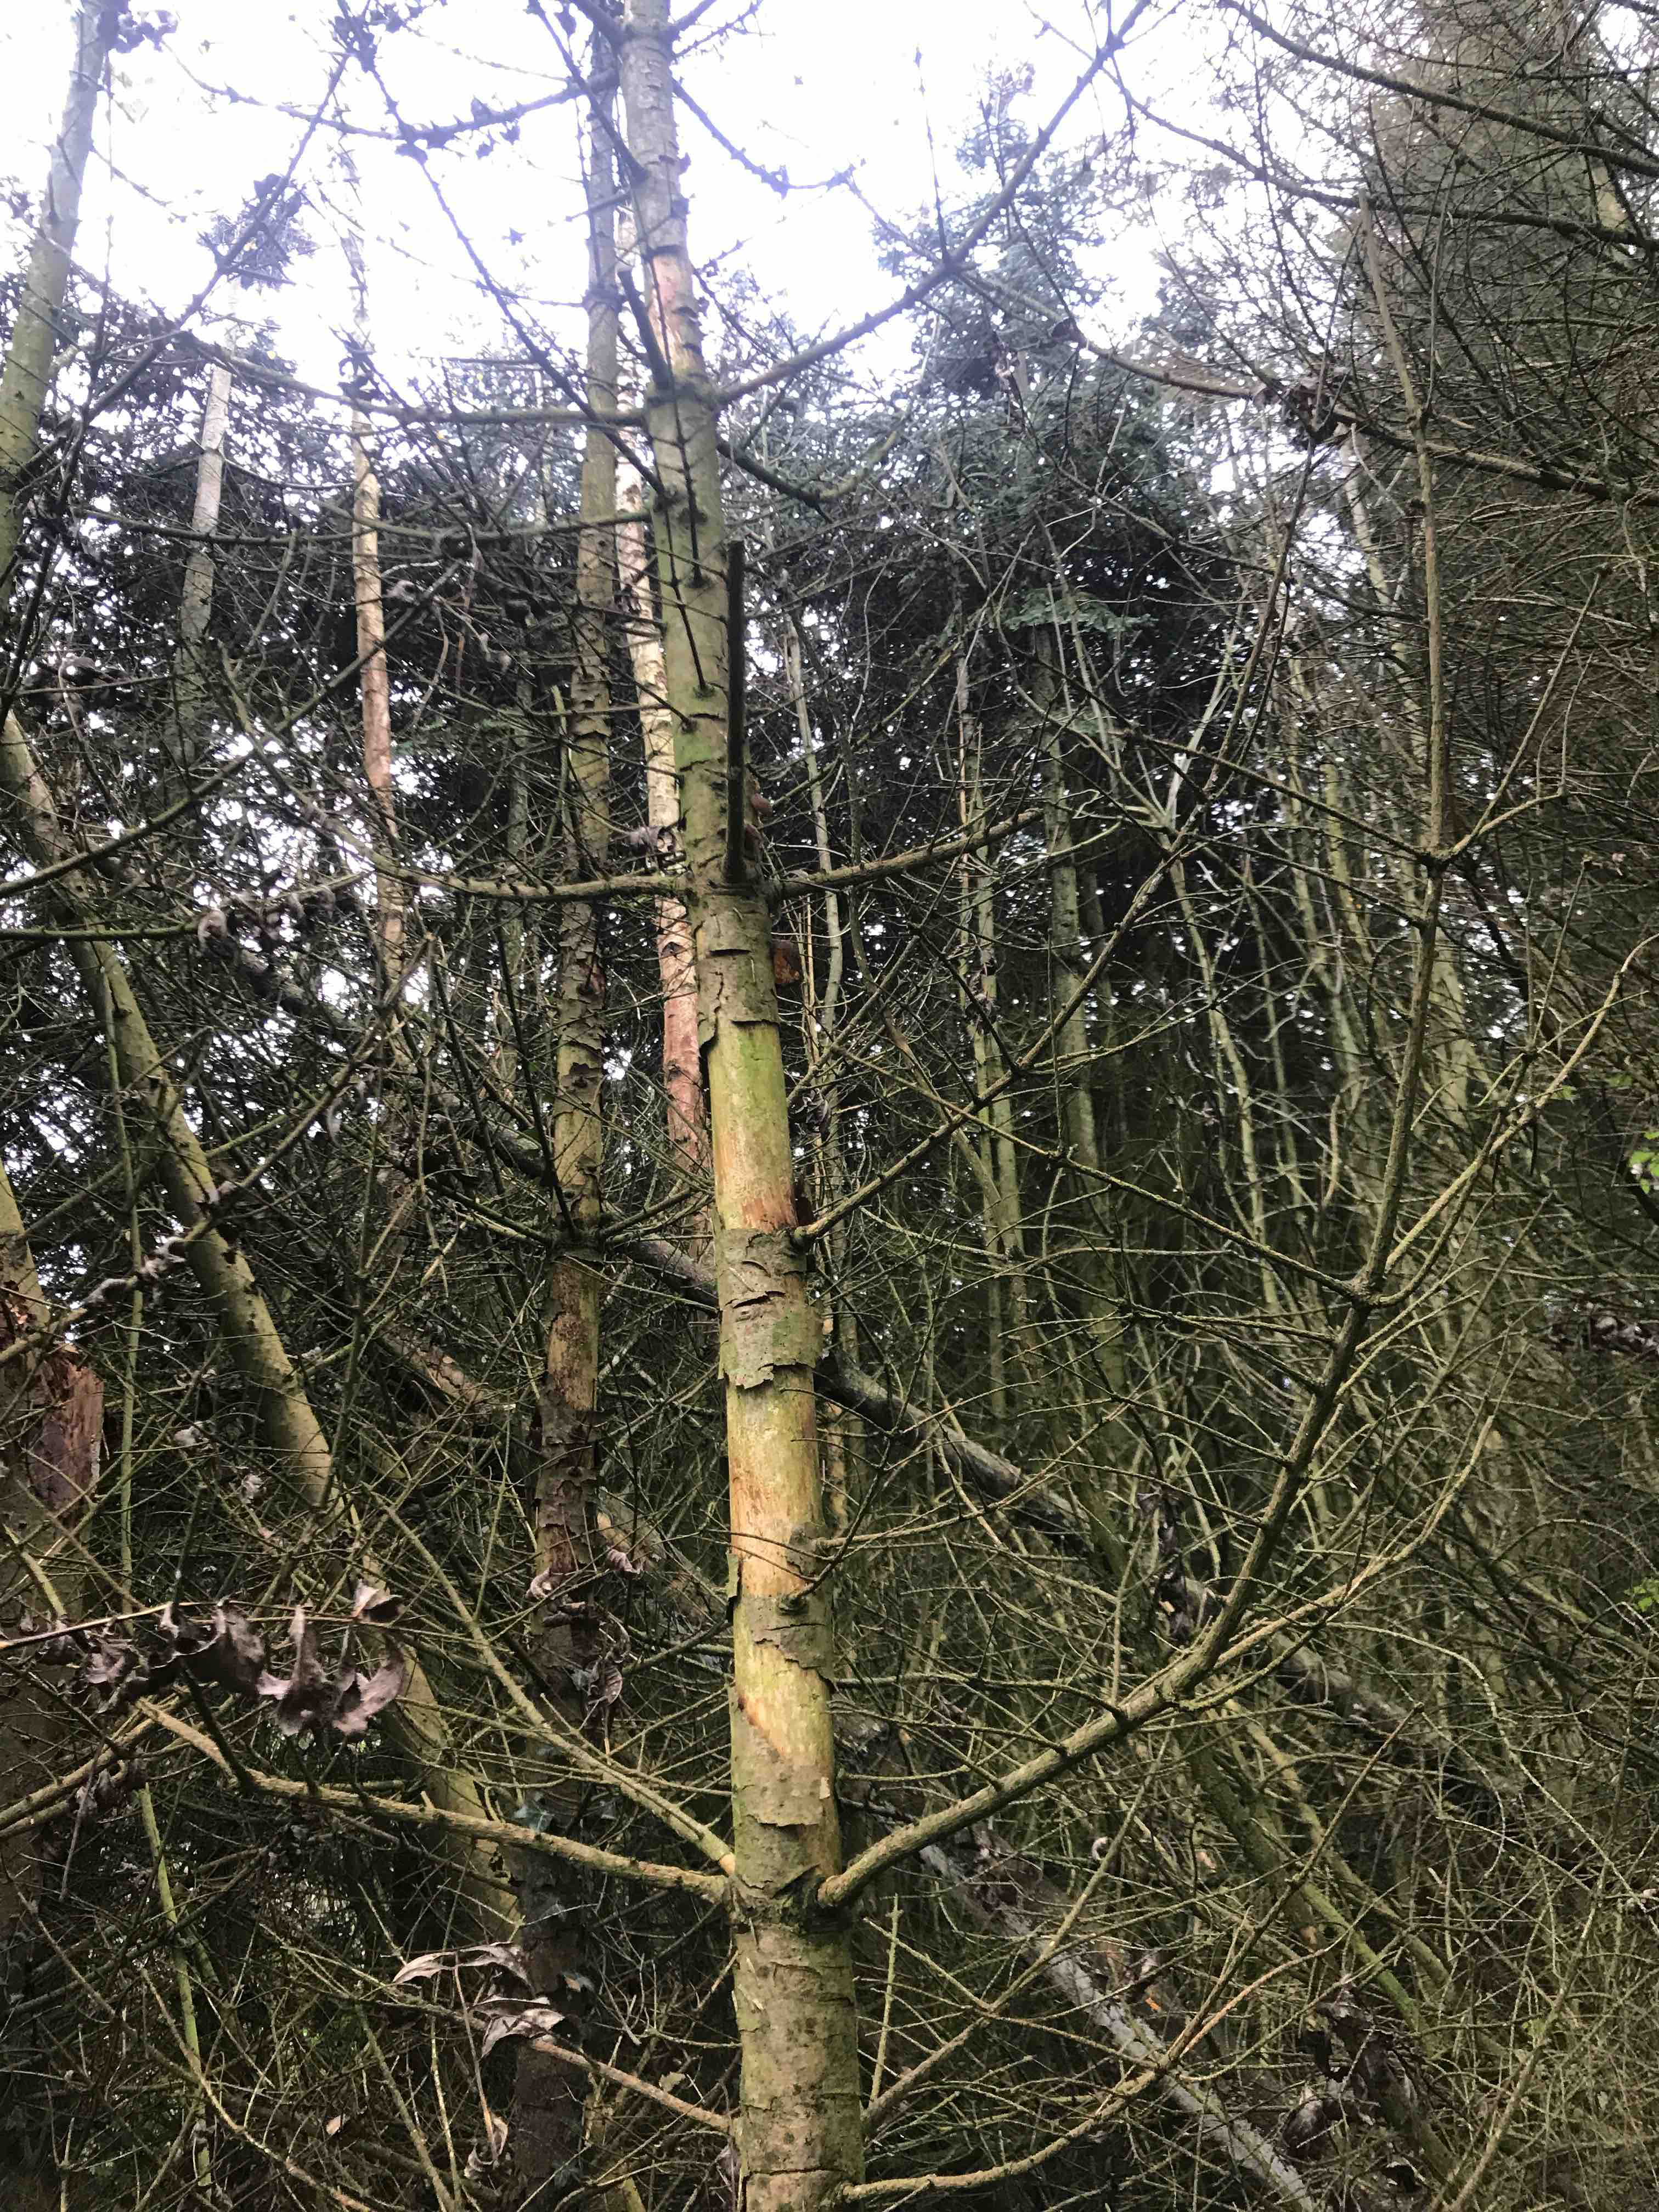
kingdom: Fungi
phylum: Basidiomycota
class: Agaricomycetes
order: Auriculariales
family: Auriculariaceae
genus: Auricularia
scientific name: Auricularia auricula-judae
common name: almindelig judasøre
